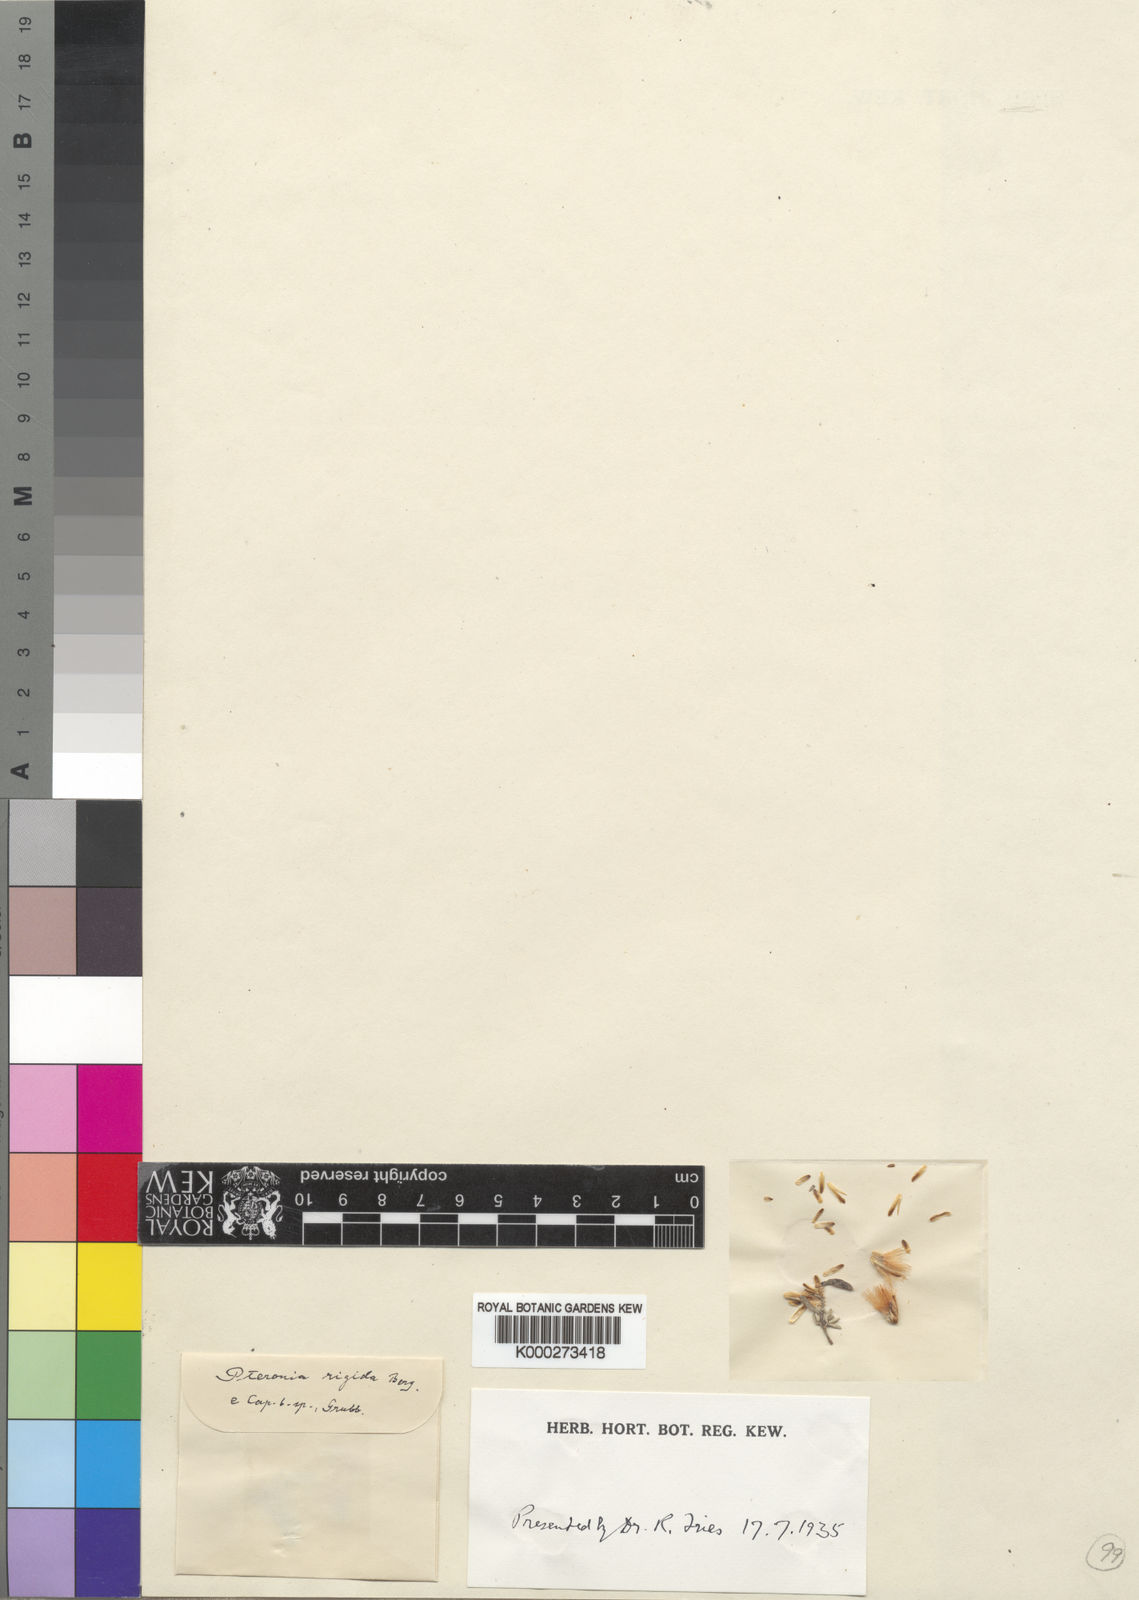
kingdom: Plantae
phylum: Tracheophyta
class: Magnoliopsida
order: Asterales
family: Asteraceae
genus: Pteronia
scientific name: Pteronia incana
